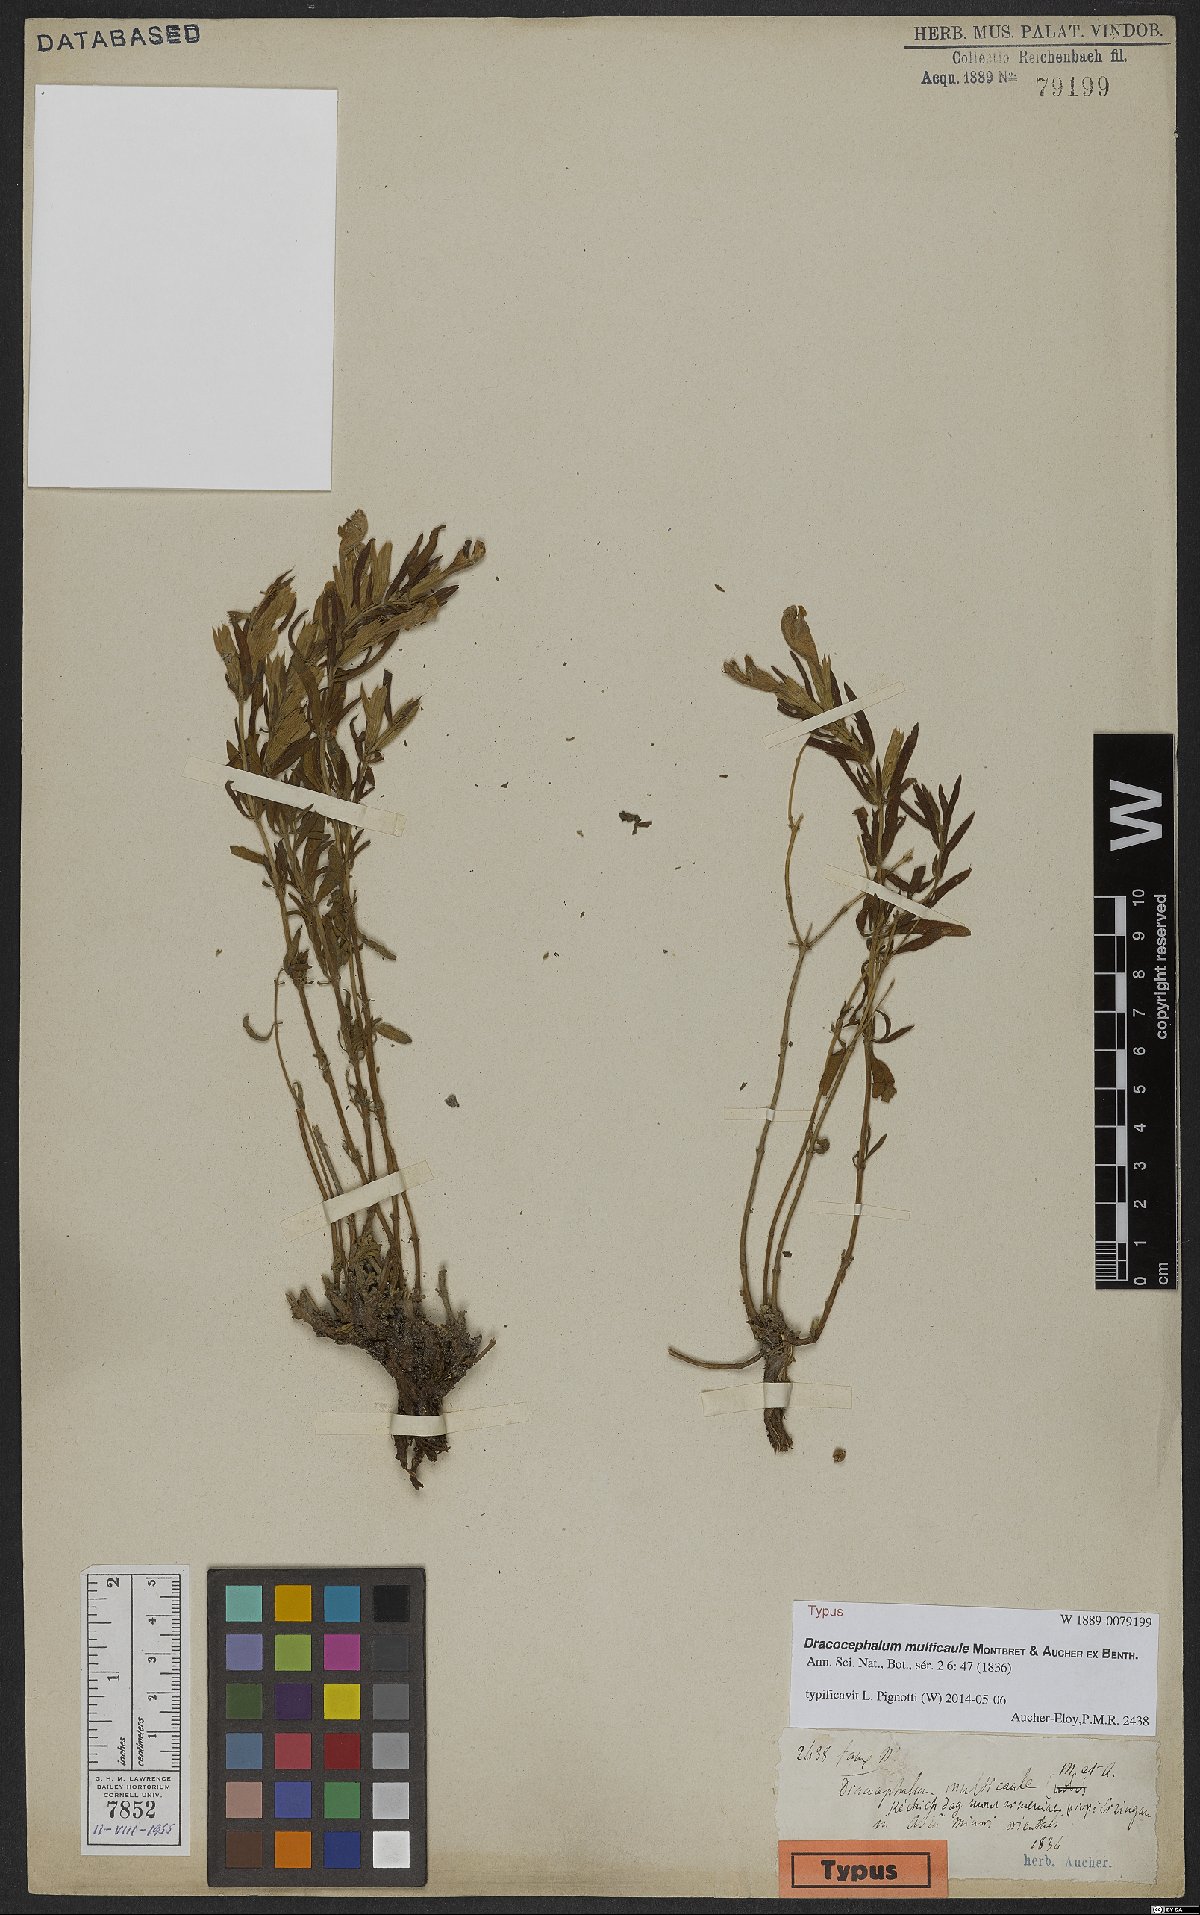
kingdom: Plantae
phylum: Tracheophyta
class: Magnoliopsida
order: Lamiales
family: Lamiaceae
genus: Dracocephalum
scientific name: Dracocephalum multicaule
